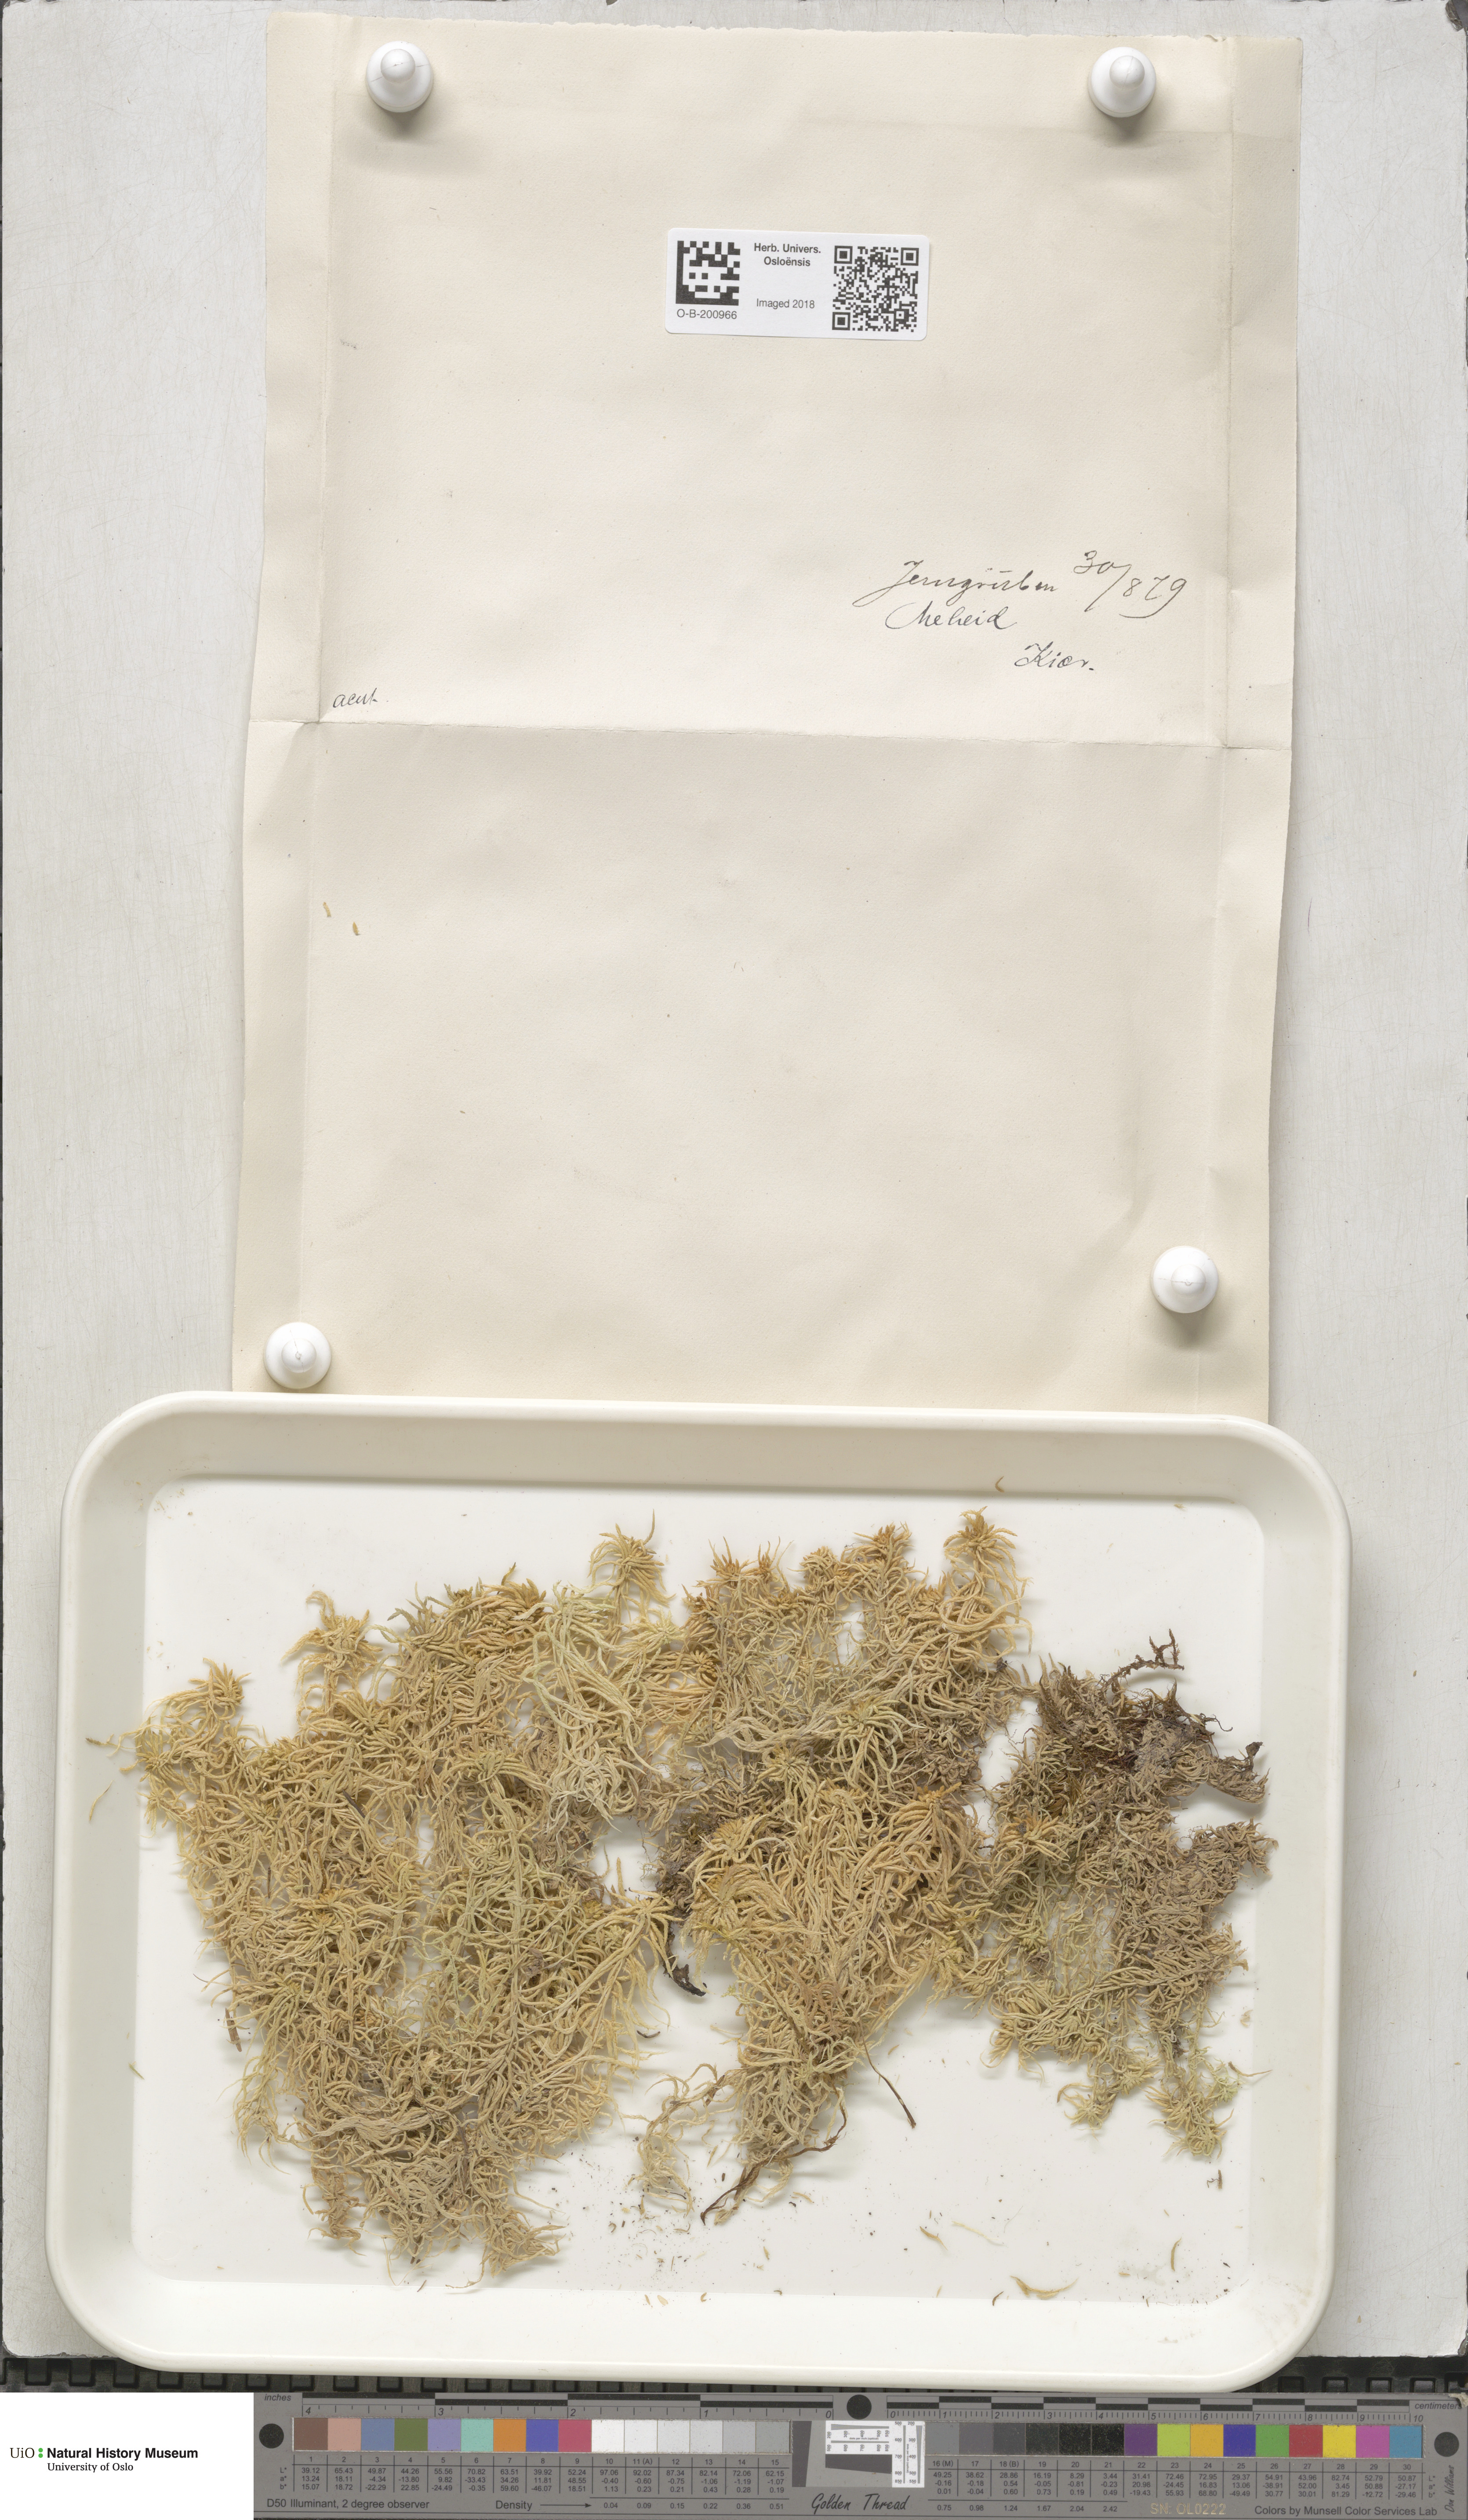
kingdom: Plantae
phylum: Bryophyta
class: Sphagnopsida
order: Sphagnales
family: Sphagnaceae
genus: Sphagnum
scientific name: Sphagnum girgensohnii
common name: Girgensohn's peat moss
